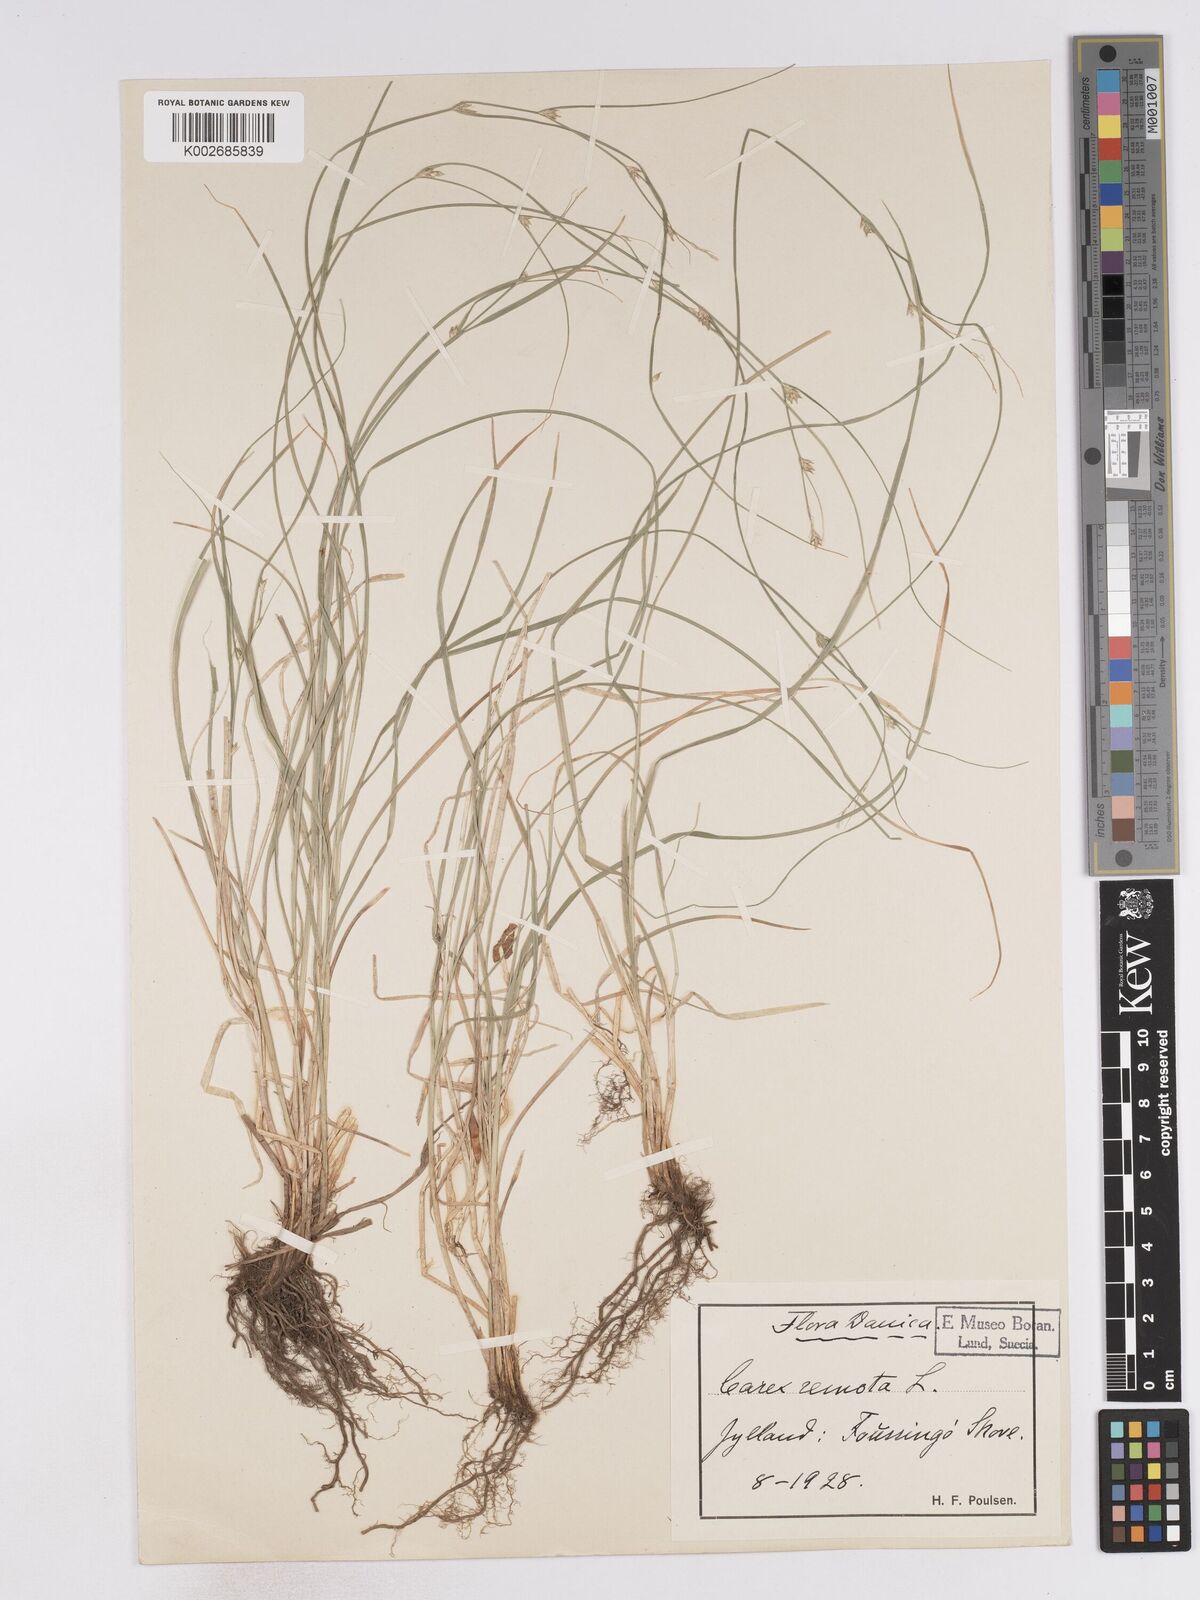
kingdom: Plantae
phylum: Tracheophyta
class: Liliopsida
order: Poales
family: Cyperaceae
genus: Carex
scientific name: Carex remota
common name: Remote sedge
